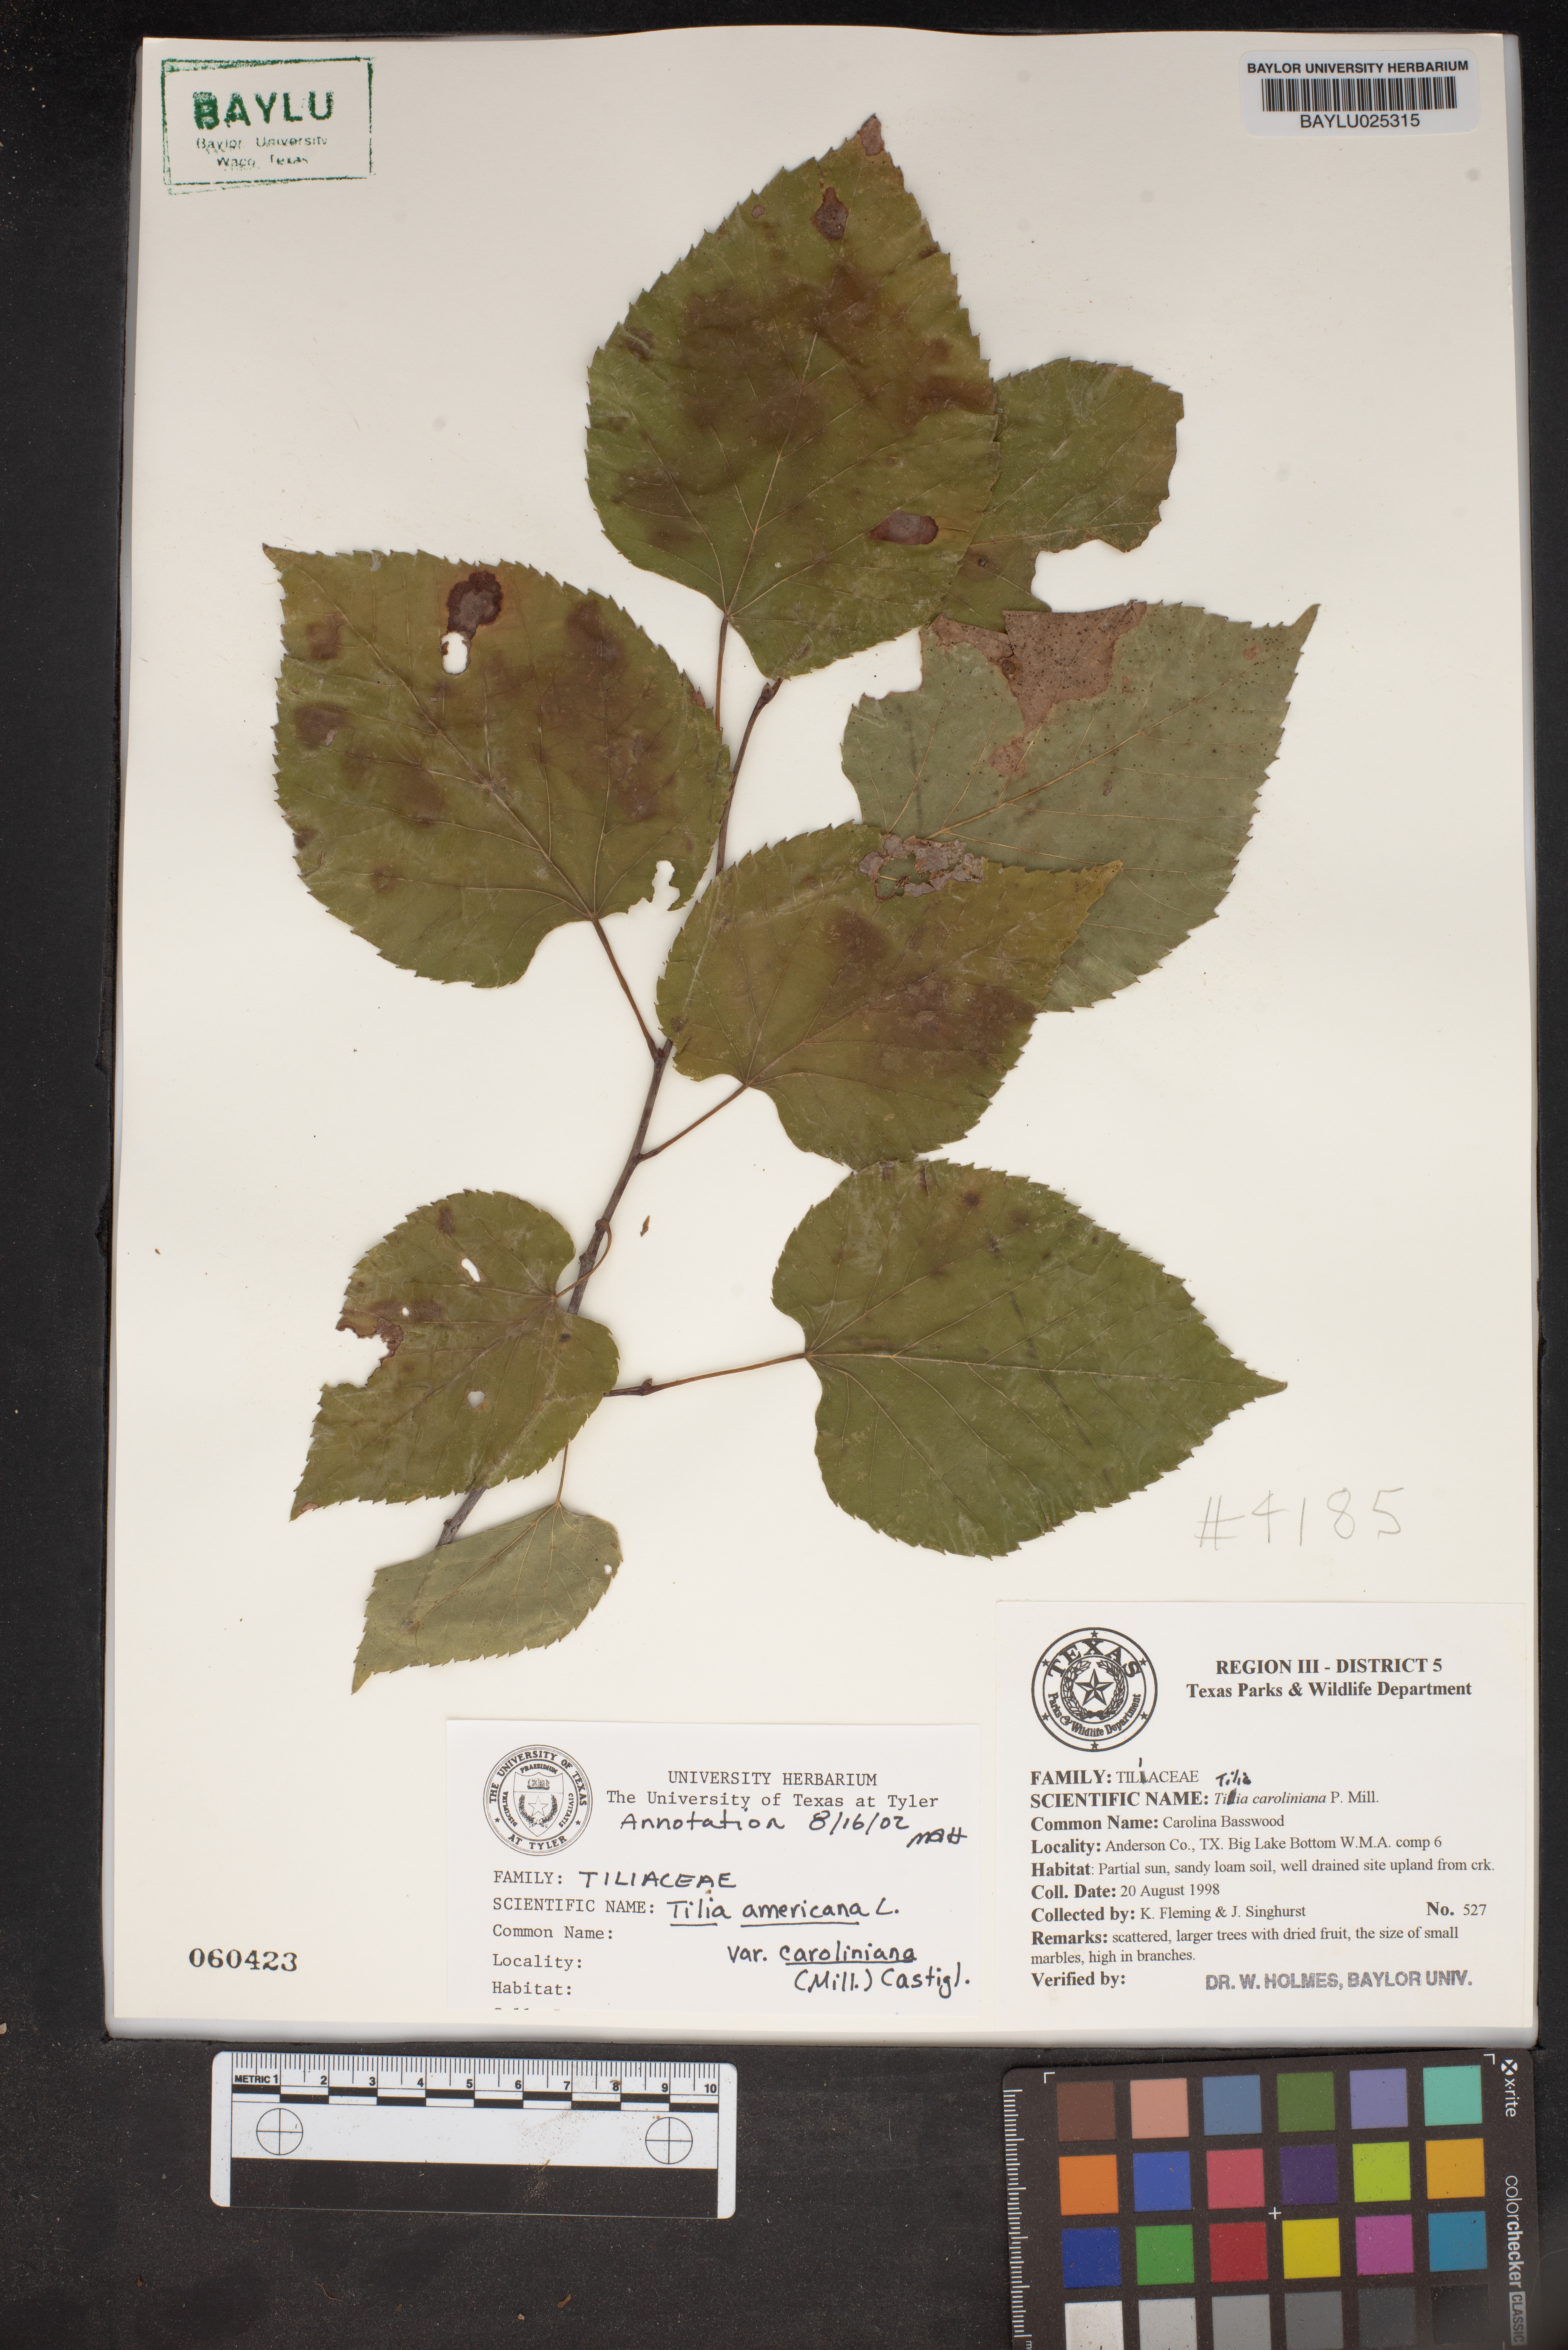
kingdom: Plantae
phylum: Tracheophyta
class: Magnoliopsida
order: Malvales
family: Malvaceae
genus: Tilia
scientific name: Tilia americana
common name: Basswood
